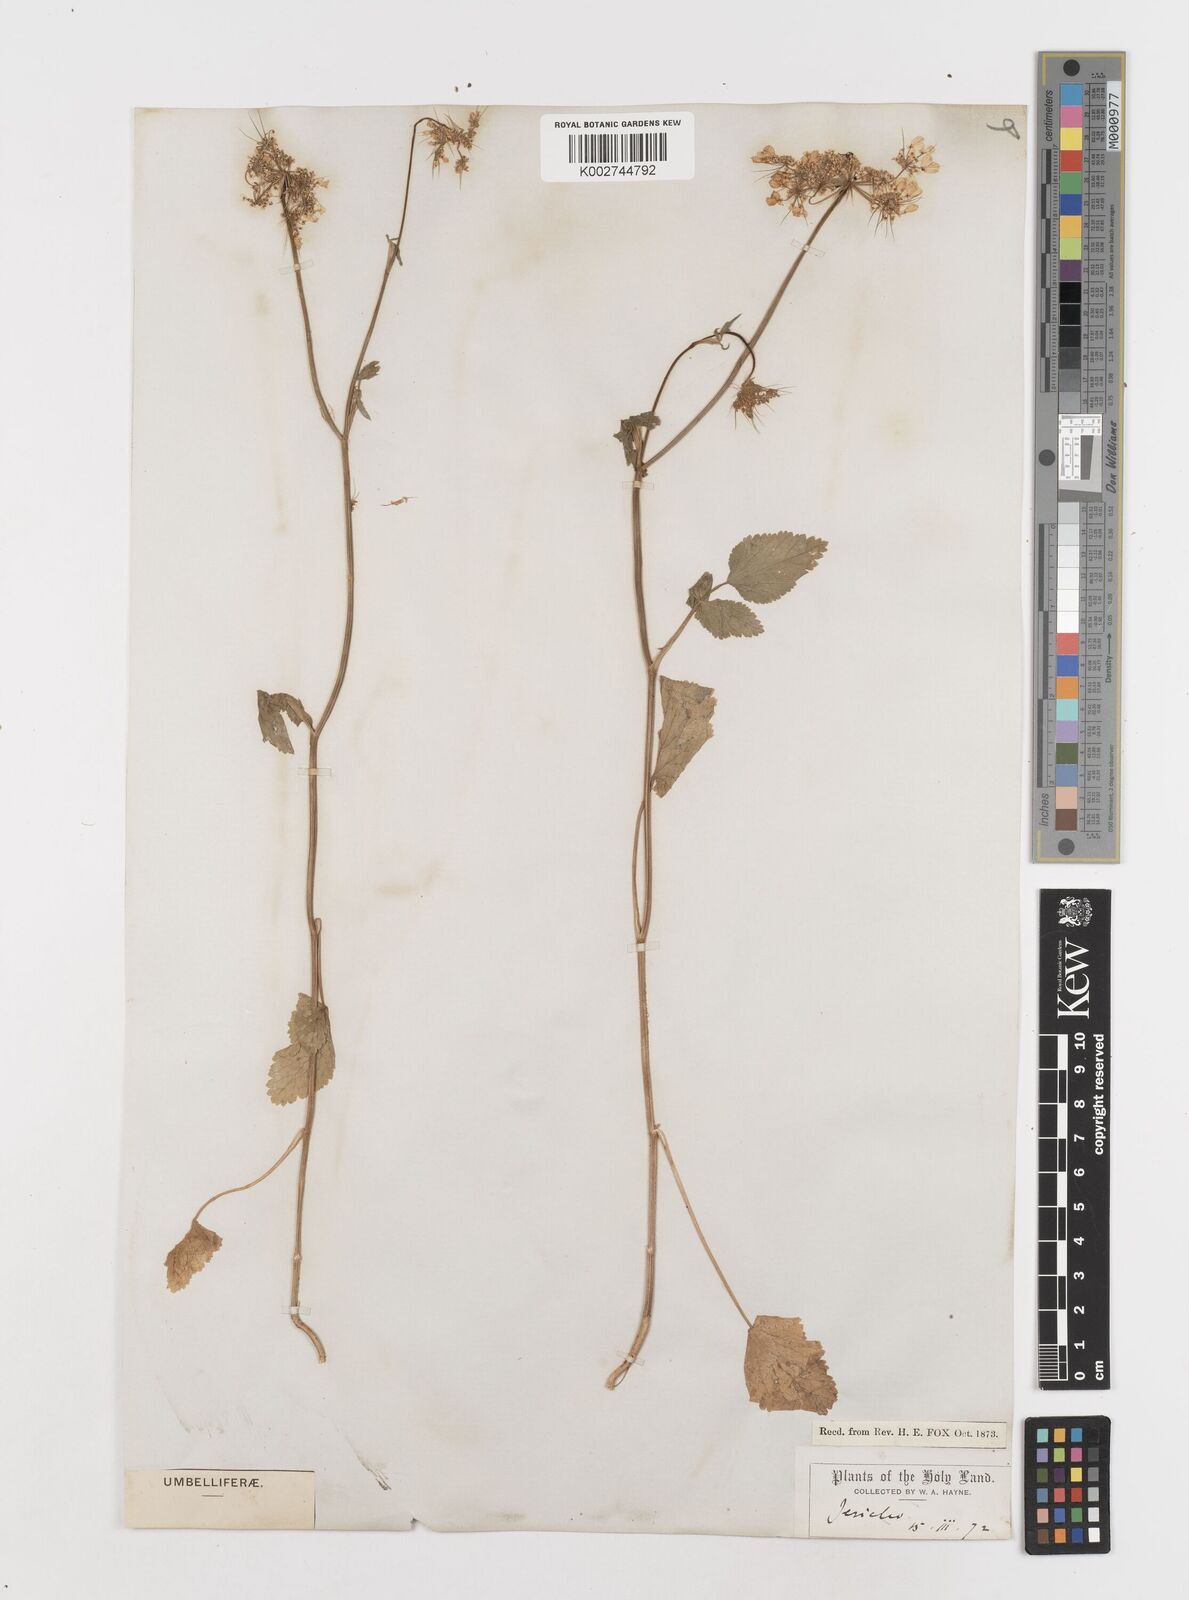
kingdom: Plantae
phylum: Tracheophyta
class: Magnoliopsida
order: Apiales
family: Apiaceae
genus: Ainsworthia
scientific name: Ainsworthia trachycarpa
